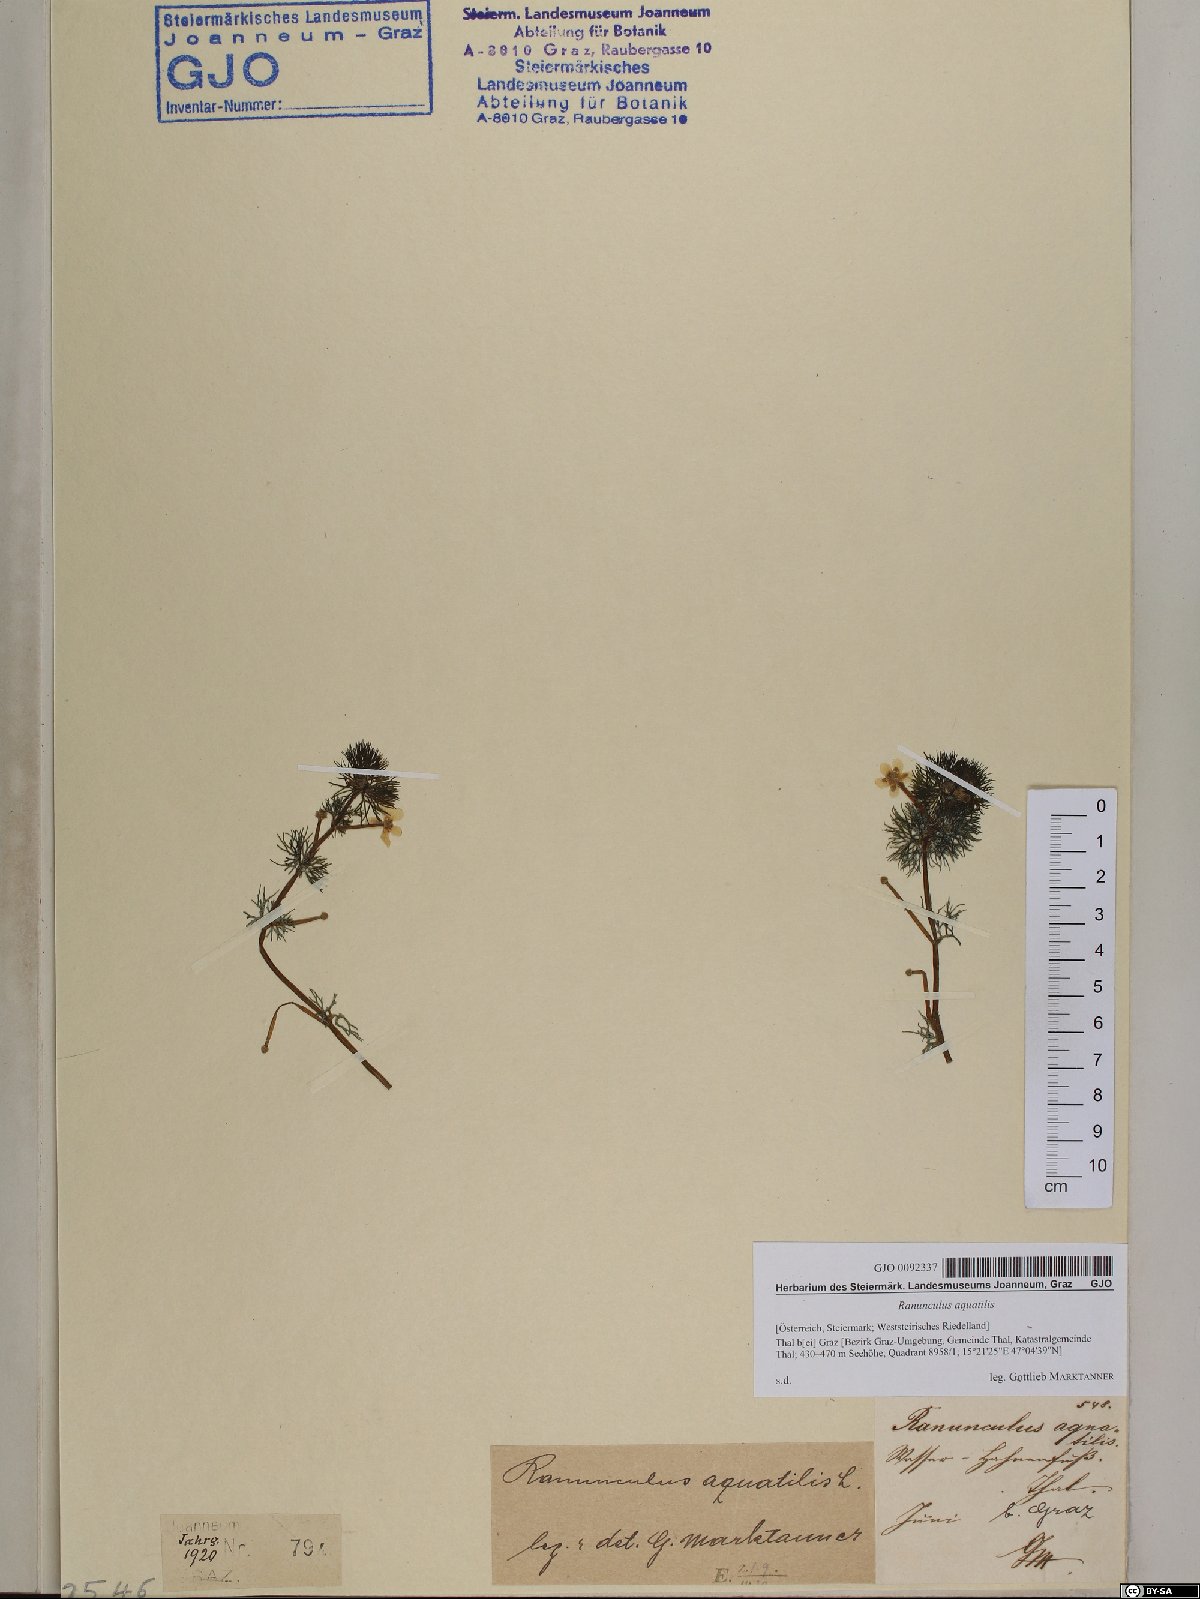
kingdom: Plantae
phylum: Tracheophyta
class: Magnoliopsida
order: Ranunculales
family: Ranunculaceae
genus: Ranunculus
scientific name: Ranunculus aquatilis
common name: Common water-crowfoot
